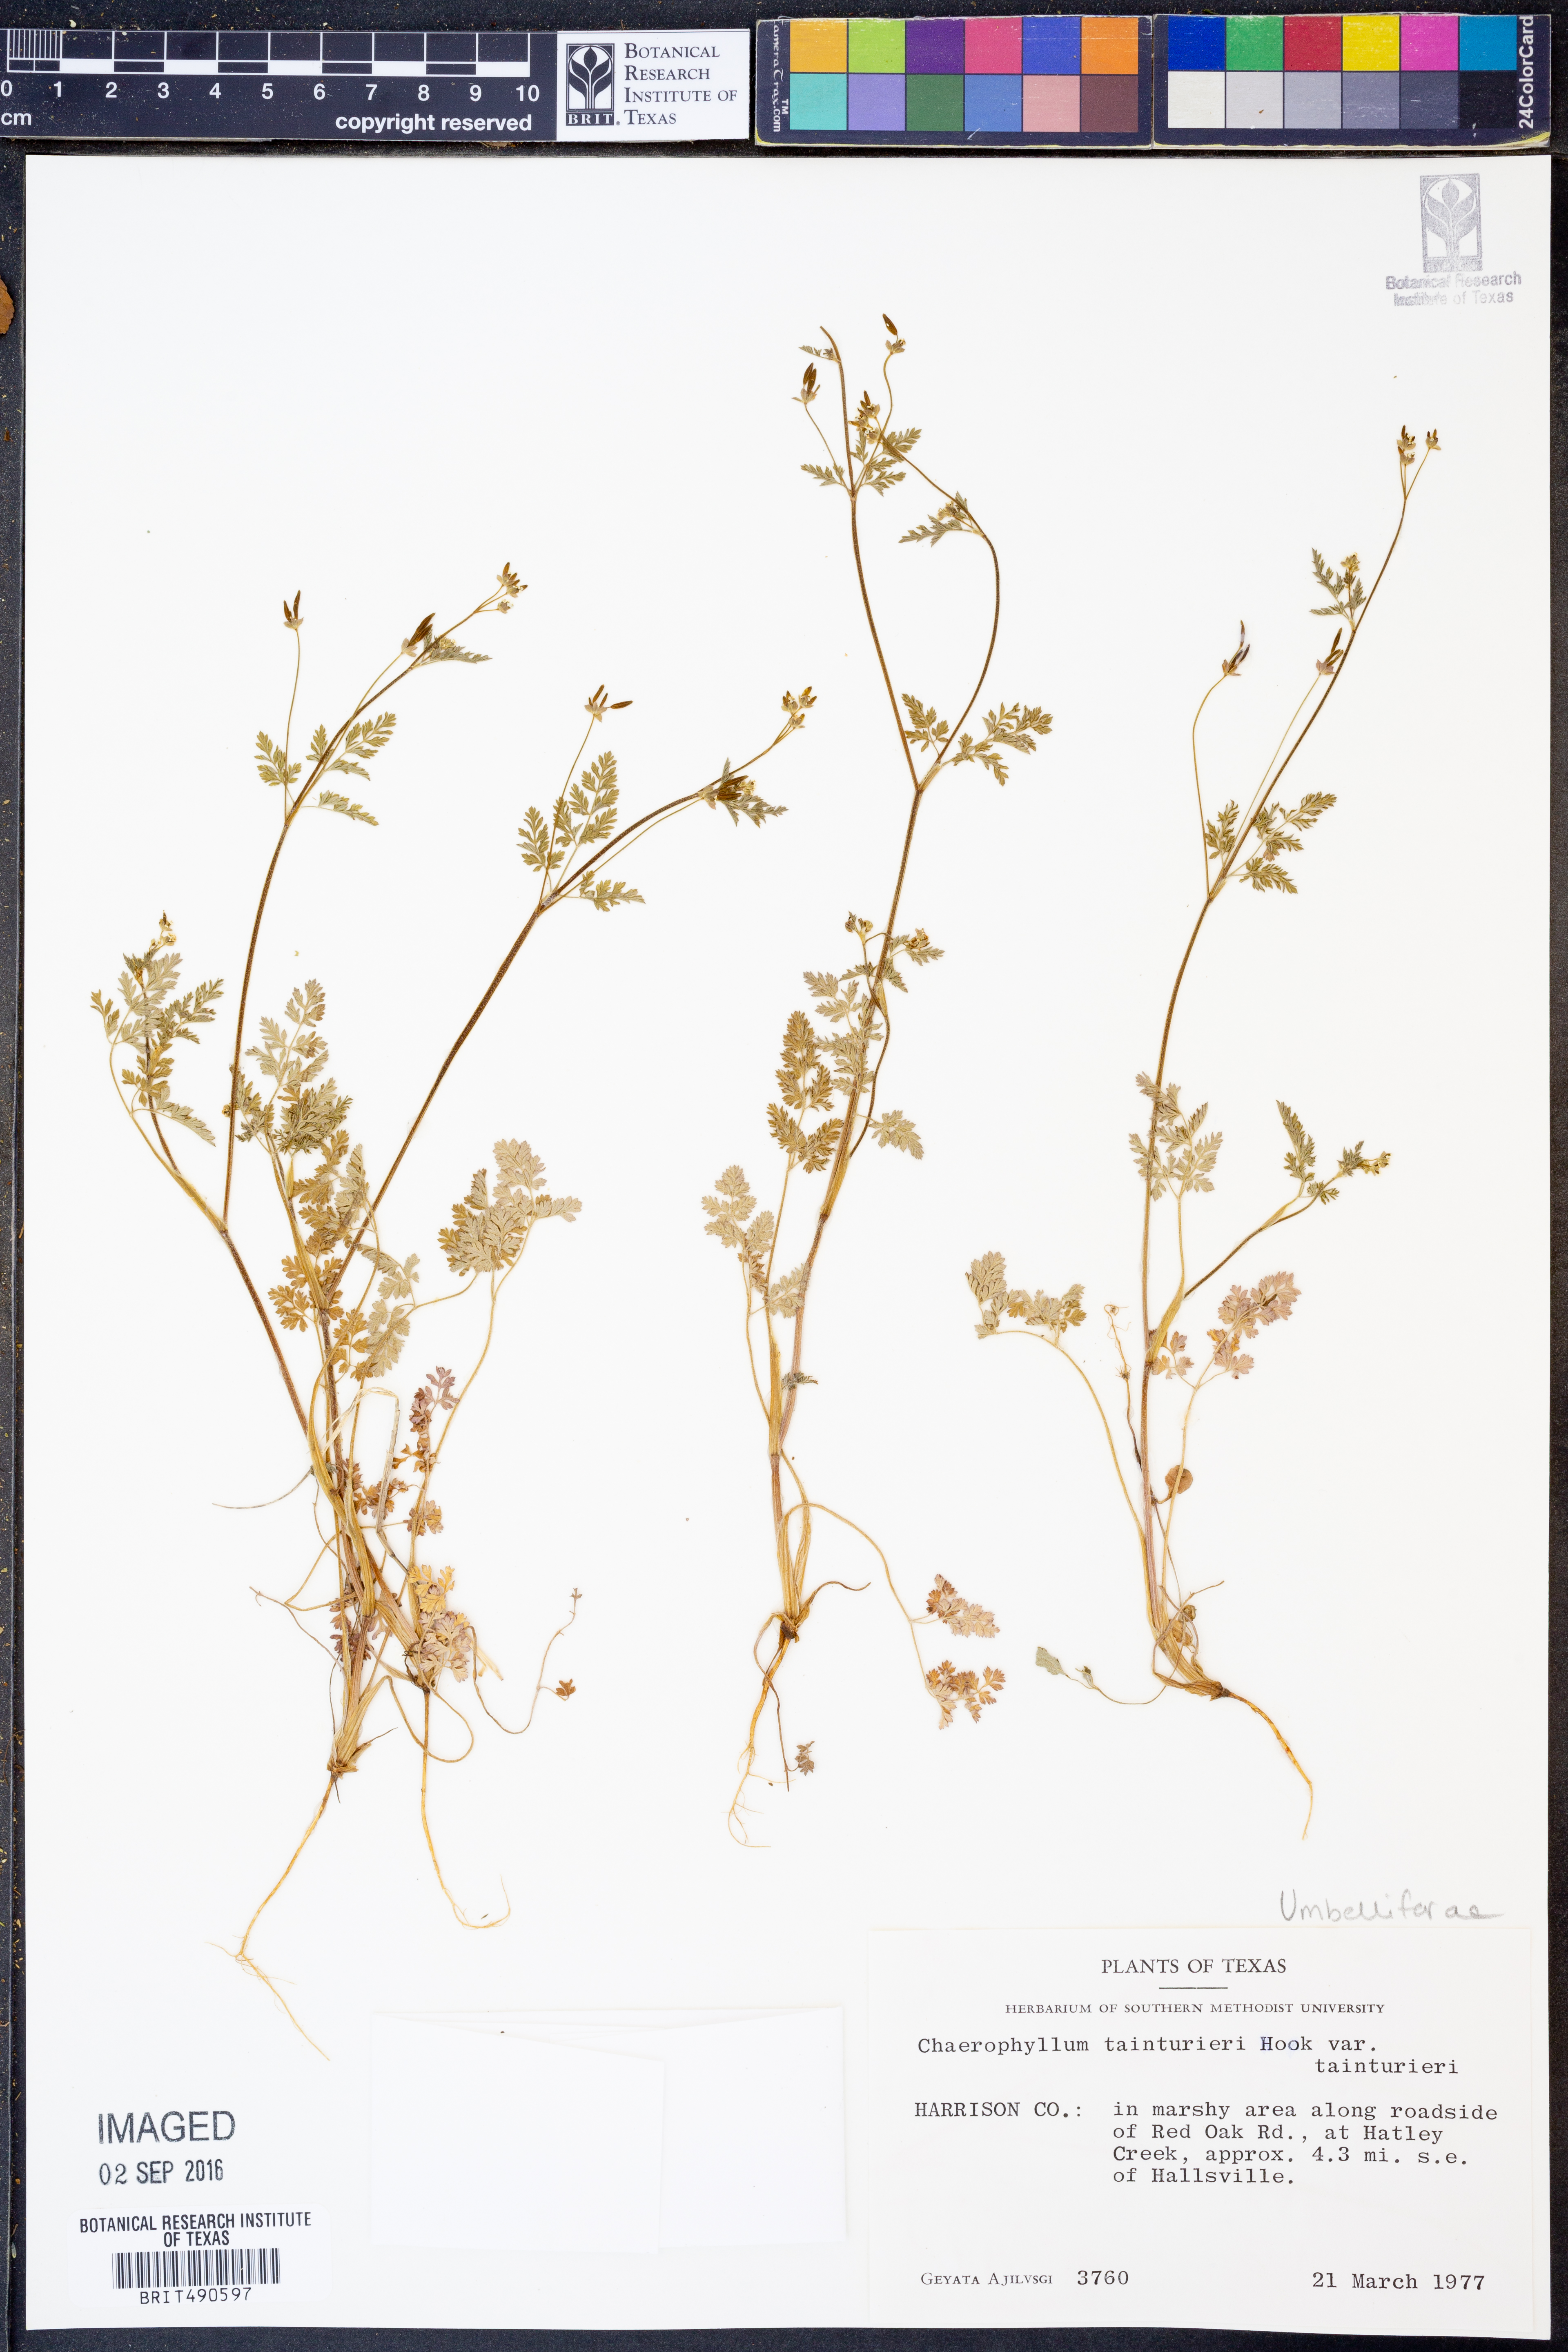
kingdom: Plantae
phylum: Tracheophyta
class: Magnoliopsida
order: Apiales
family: Apiaceae
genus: Chaerophyllum
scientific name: Chaerophyllum tainturieri
